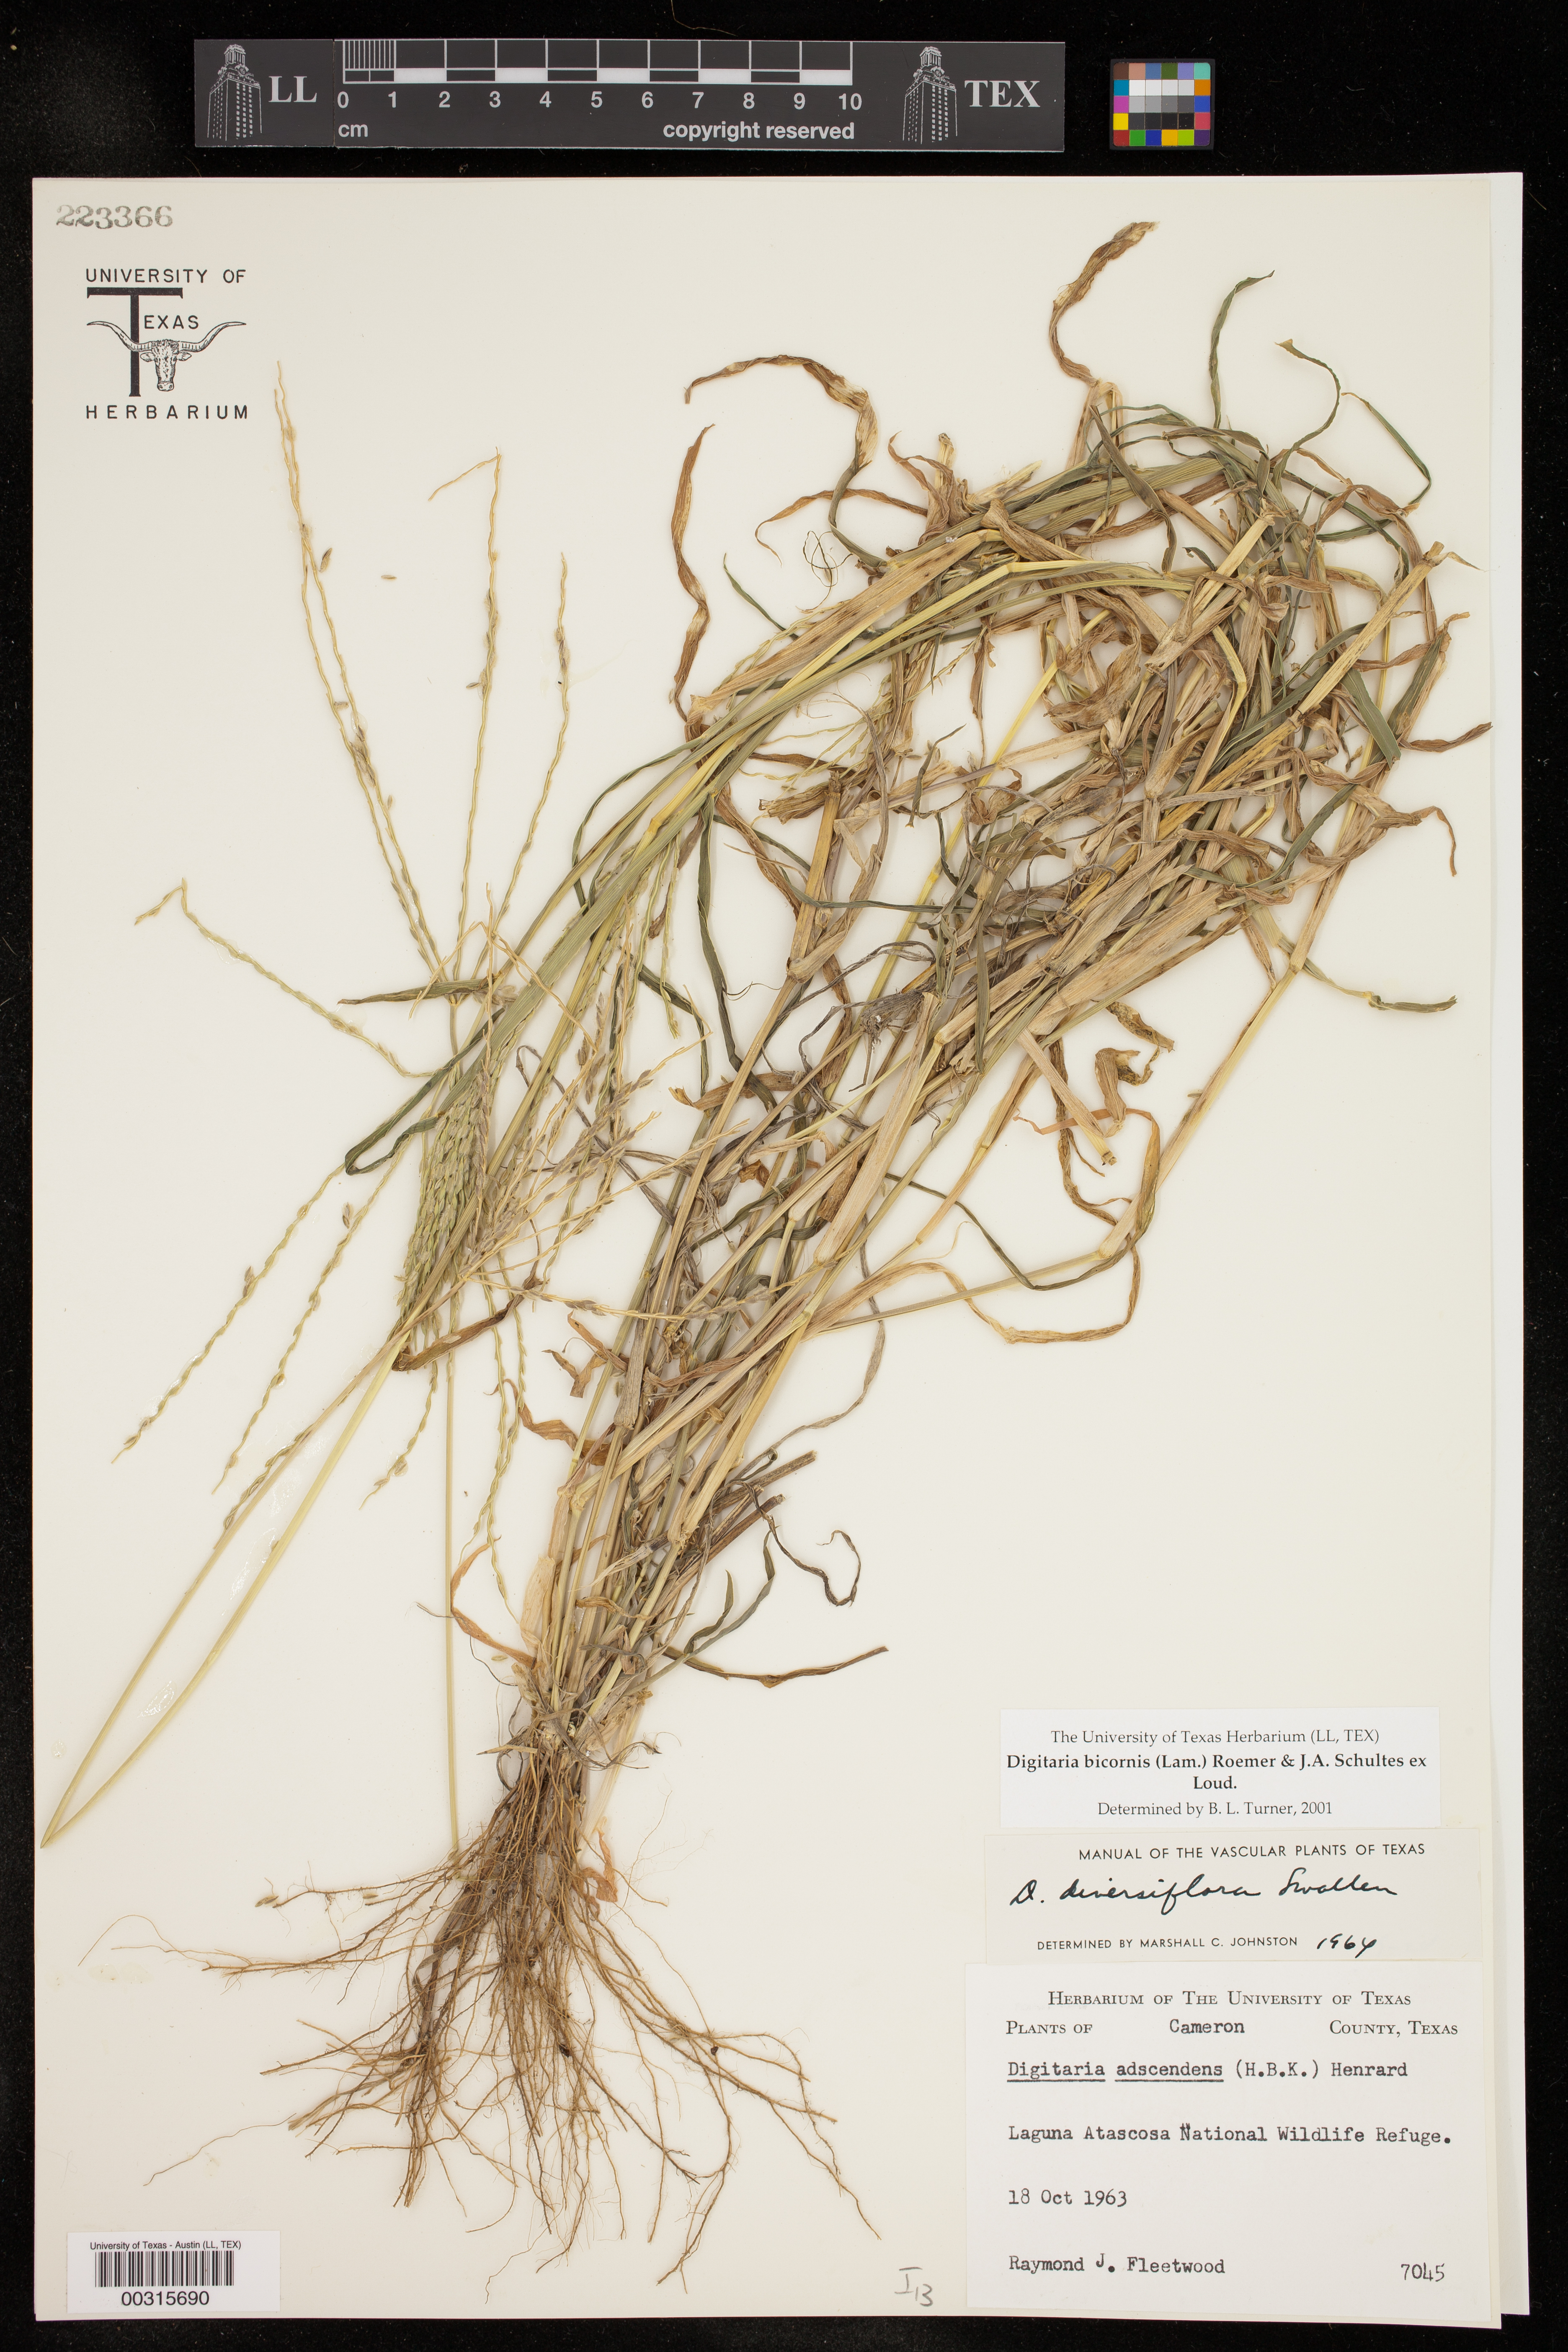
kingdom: Plantae
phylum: Tracheophyta
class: Liliopsida
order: Poales
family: Poaceae
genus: Digitaria
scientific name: Digitaria bicornis
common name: Asian crabgrass
